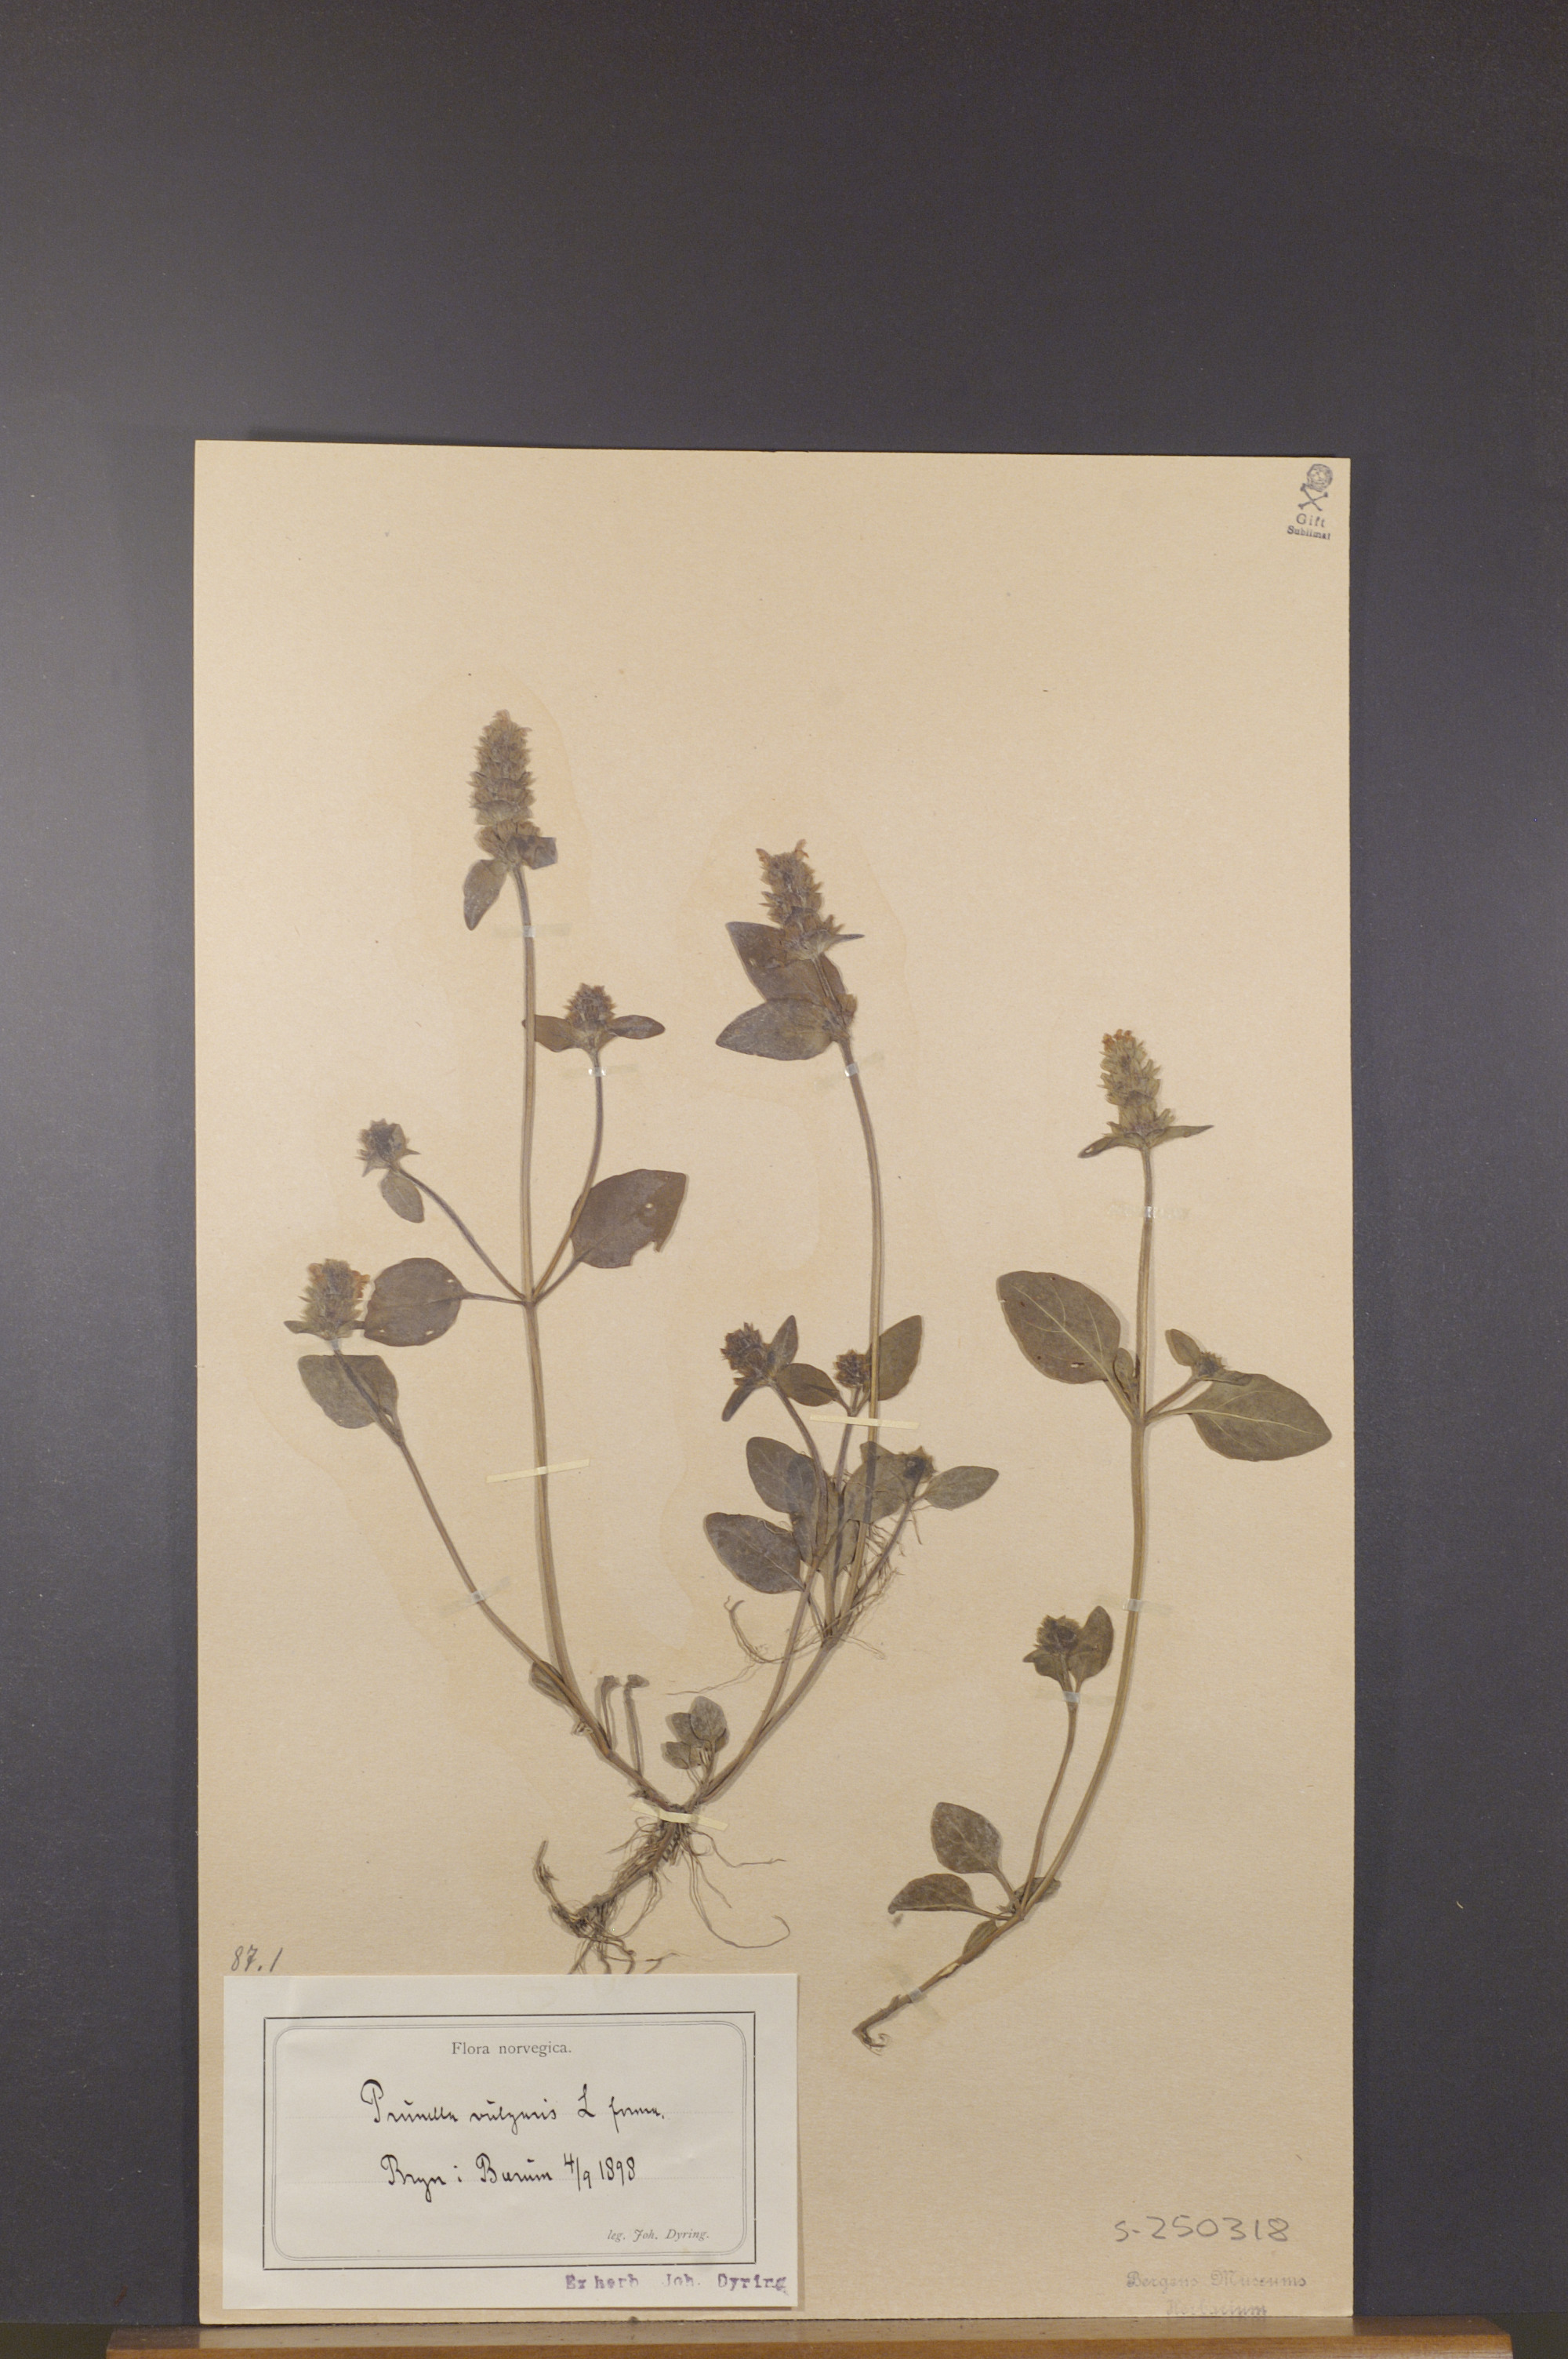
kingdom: Plantae
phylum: Tracheophyta
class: Magnoliopsida
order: Lamiales
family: Lamiaceae
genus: Prunella
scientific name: Prunella vulgaris
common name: Heal-all
